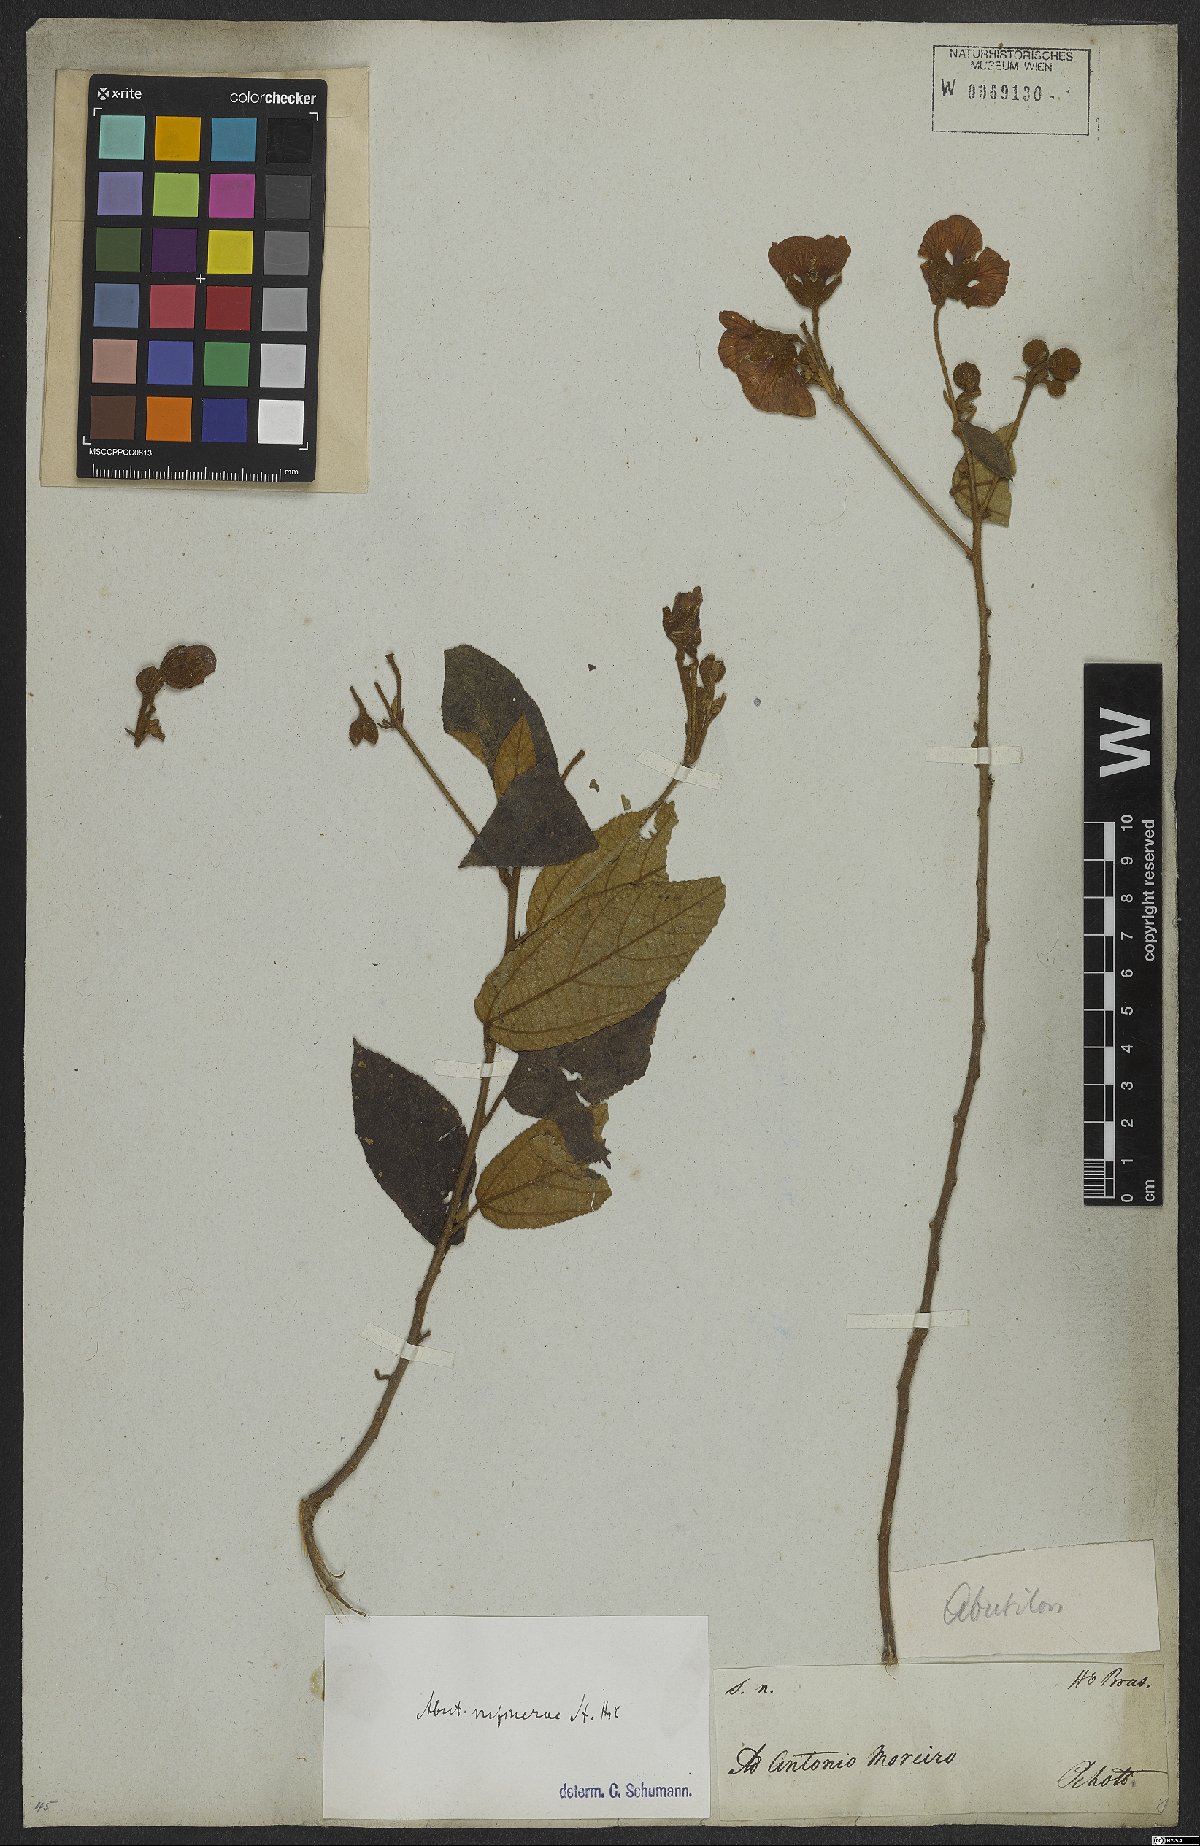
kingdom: Plantae
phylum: Tracheophyta
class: Magnoliopsida
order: Malvales
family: Malvaceae
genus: Callianthe
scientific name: Callianthe rufinerva
